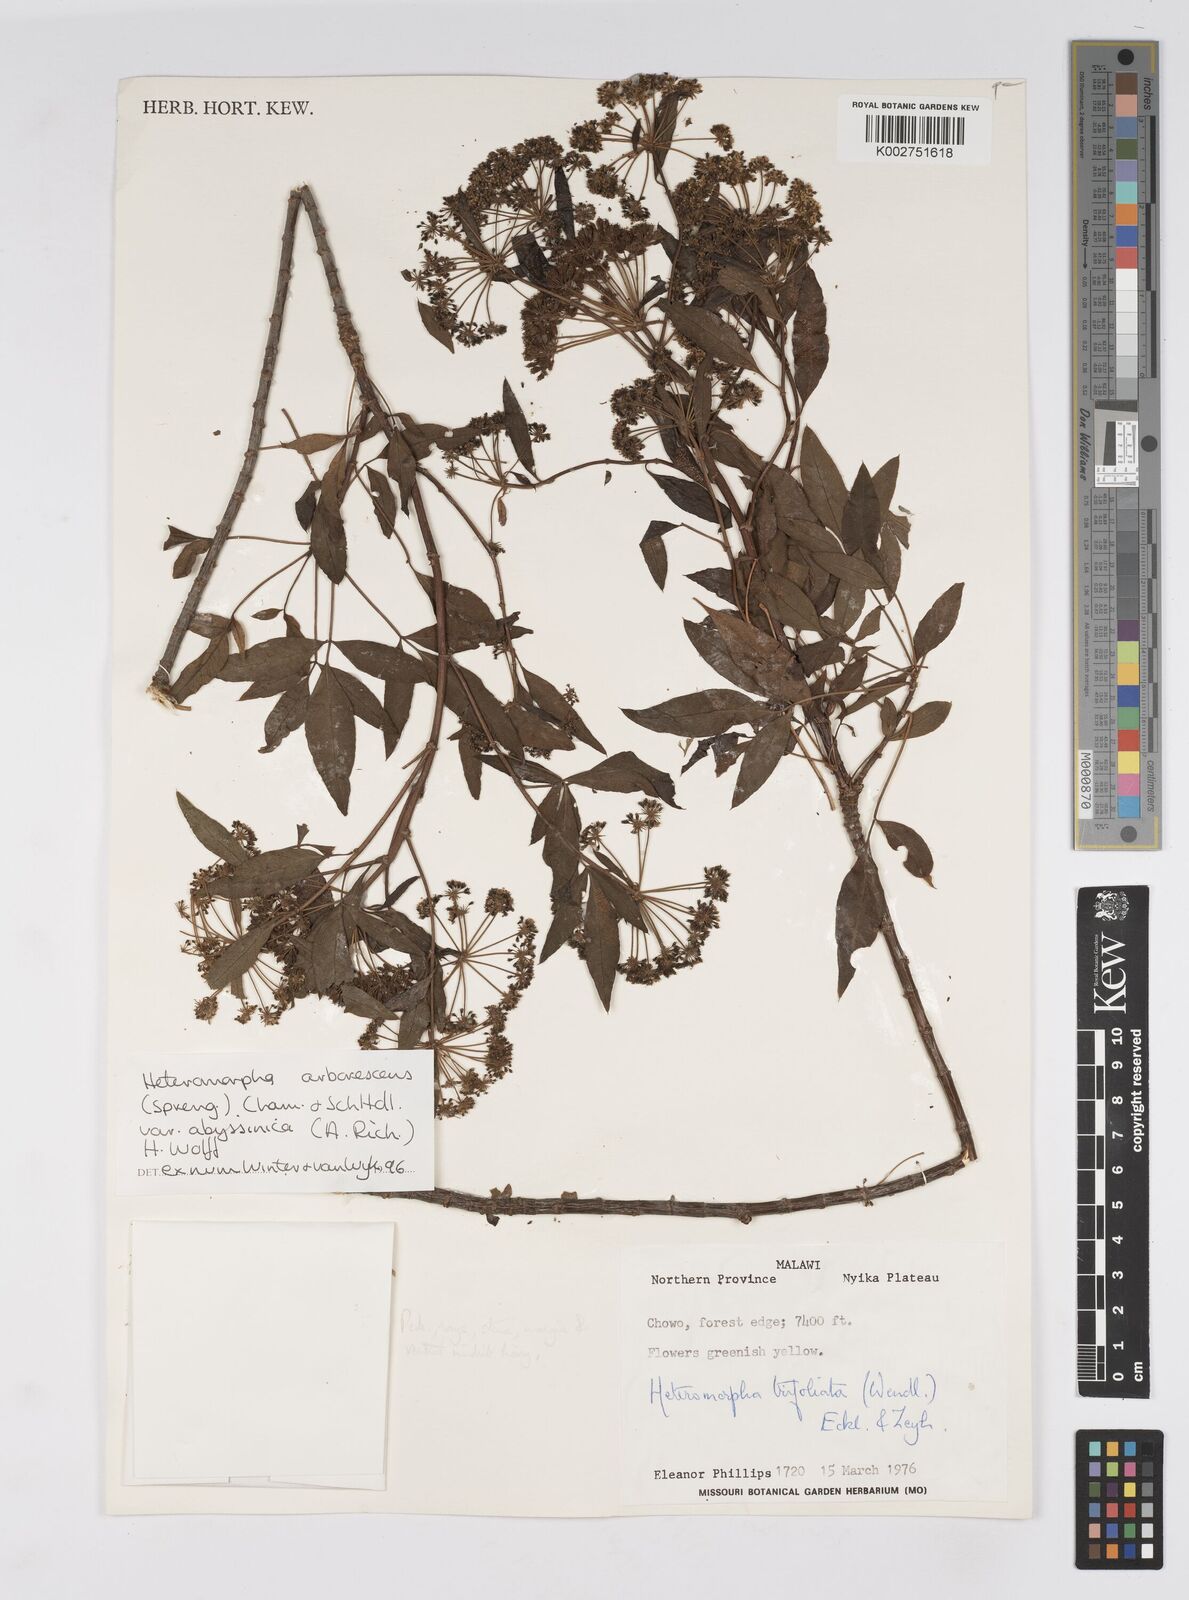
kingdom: Plantae
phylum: Tracheophyta
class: Magnoliopsida
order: Apiales
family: Apiaceae
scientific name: Apiaceae
